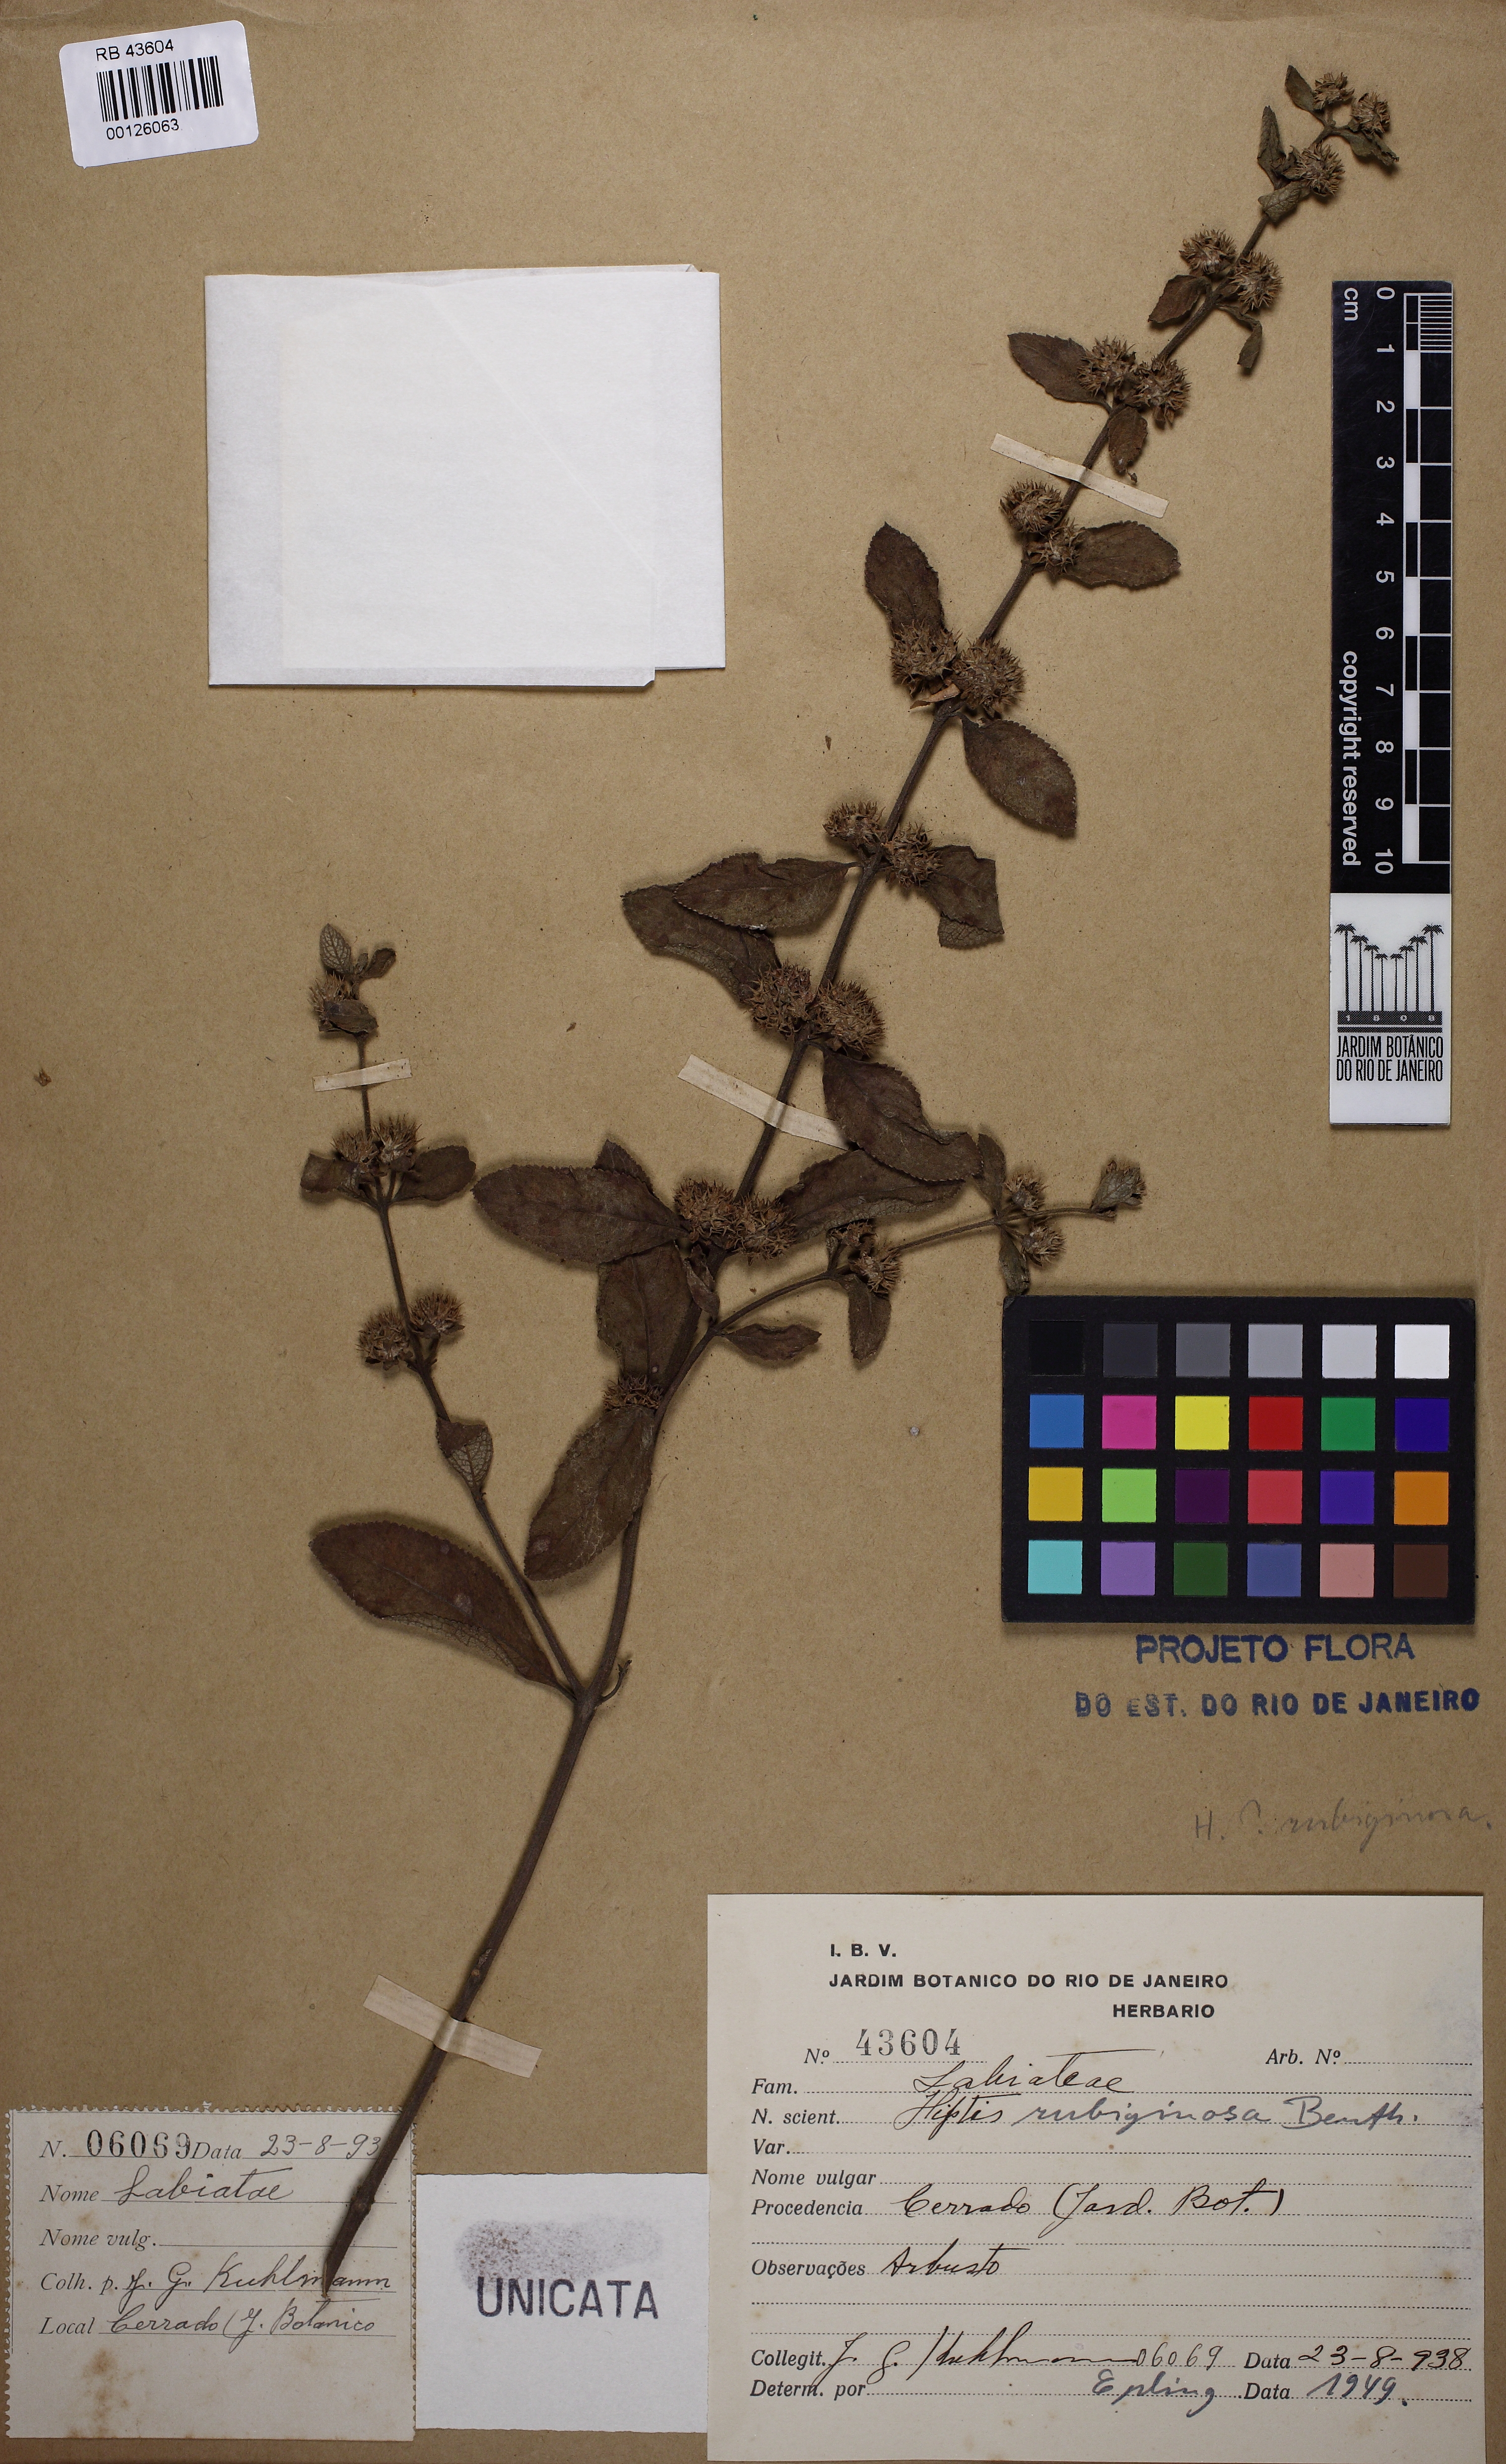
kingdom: Plantae
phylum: Tracheophyta
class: Magnoliopsida
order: Lamiales
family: Lamiaceae
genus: Hyptis
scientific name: Hyptis rubiginosa
